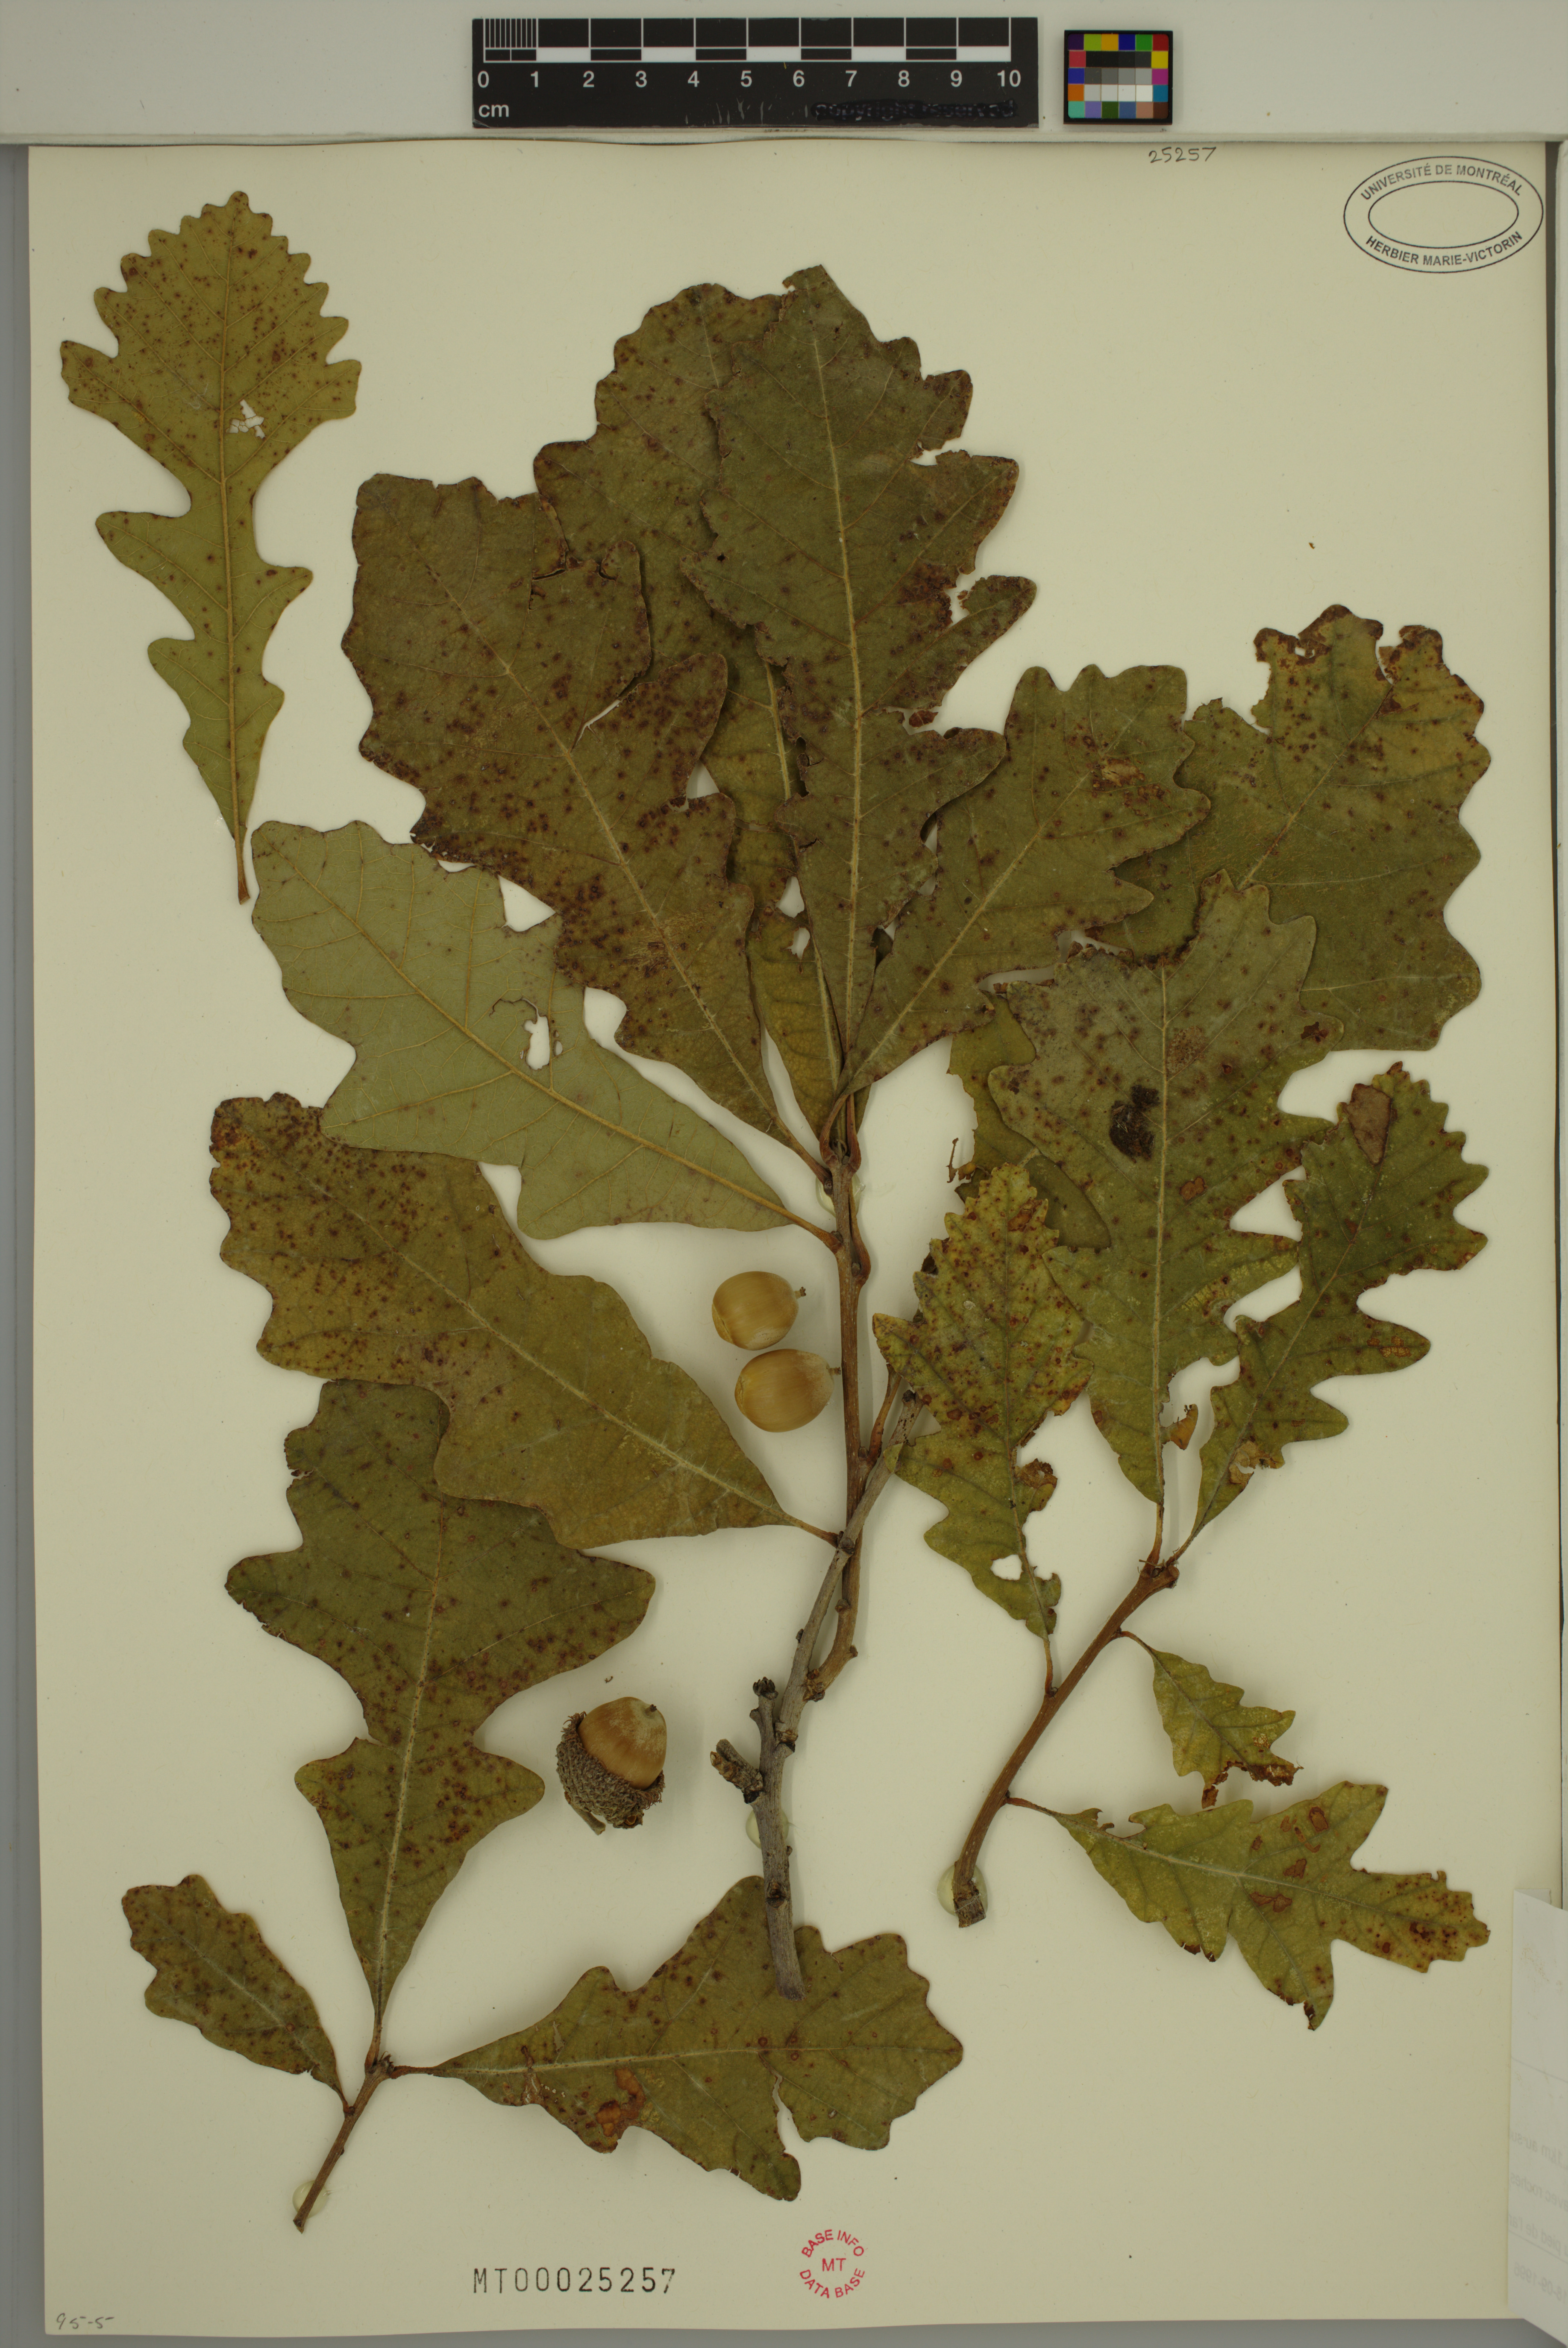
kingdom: Plantae
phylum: Tracheophyta
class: Magnoliopsida
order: Fagales
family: Fagaceae
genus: Quercus
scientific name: Quercus macrocarpa
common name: Bur oak
